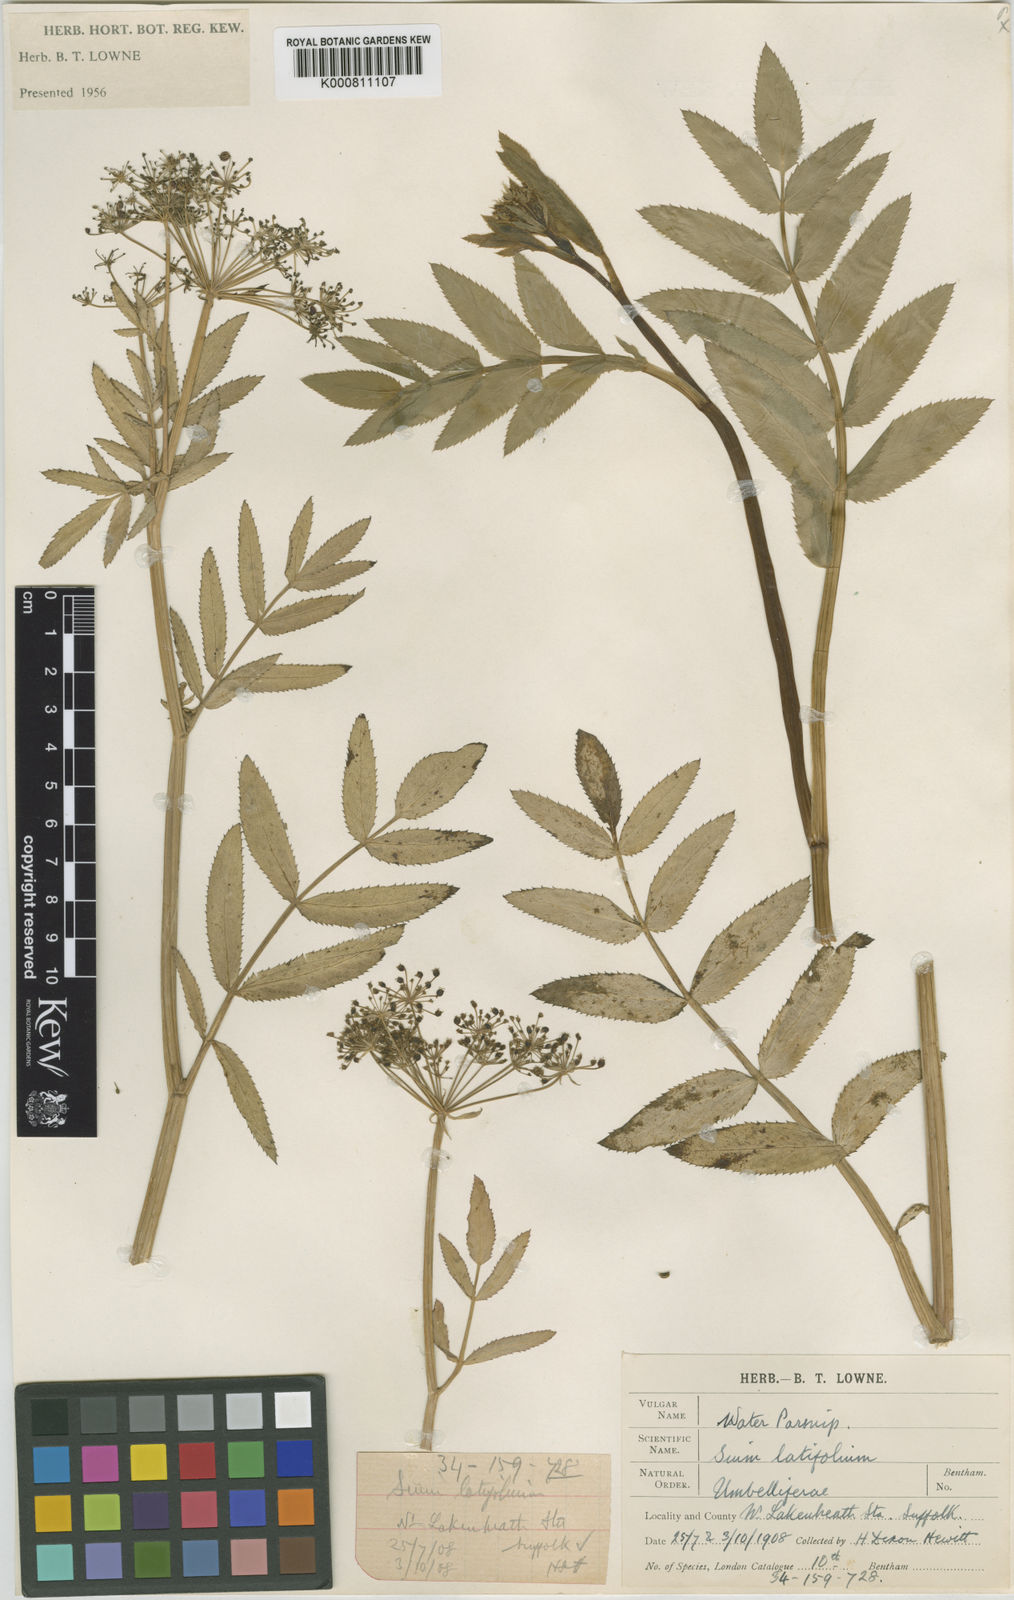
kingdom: Plantae
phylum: Tracheophyta
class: Magnoliopsida
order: Apiales
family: Apiaceae
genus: Sium
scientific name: Sium latifolium
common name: Greater water-parsnip
